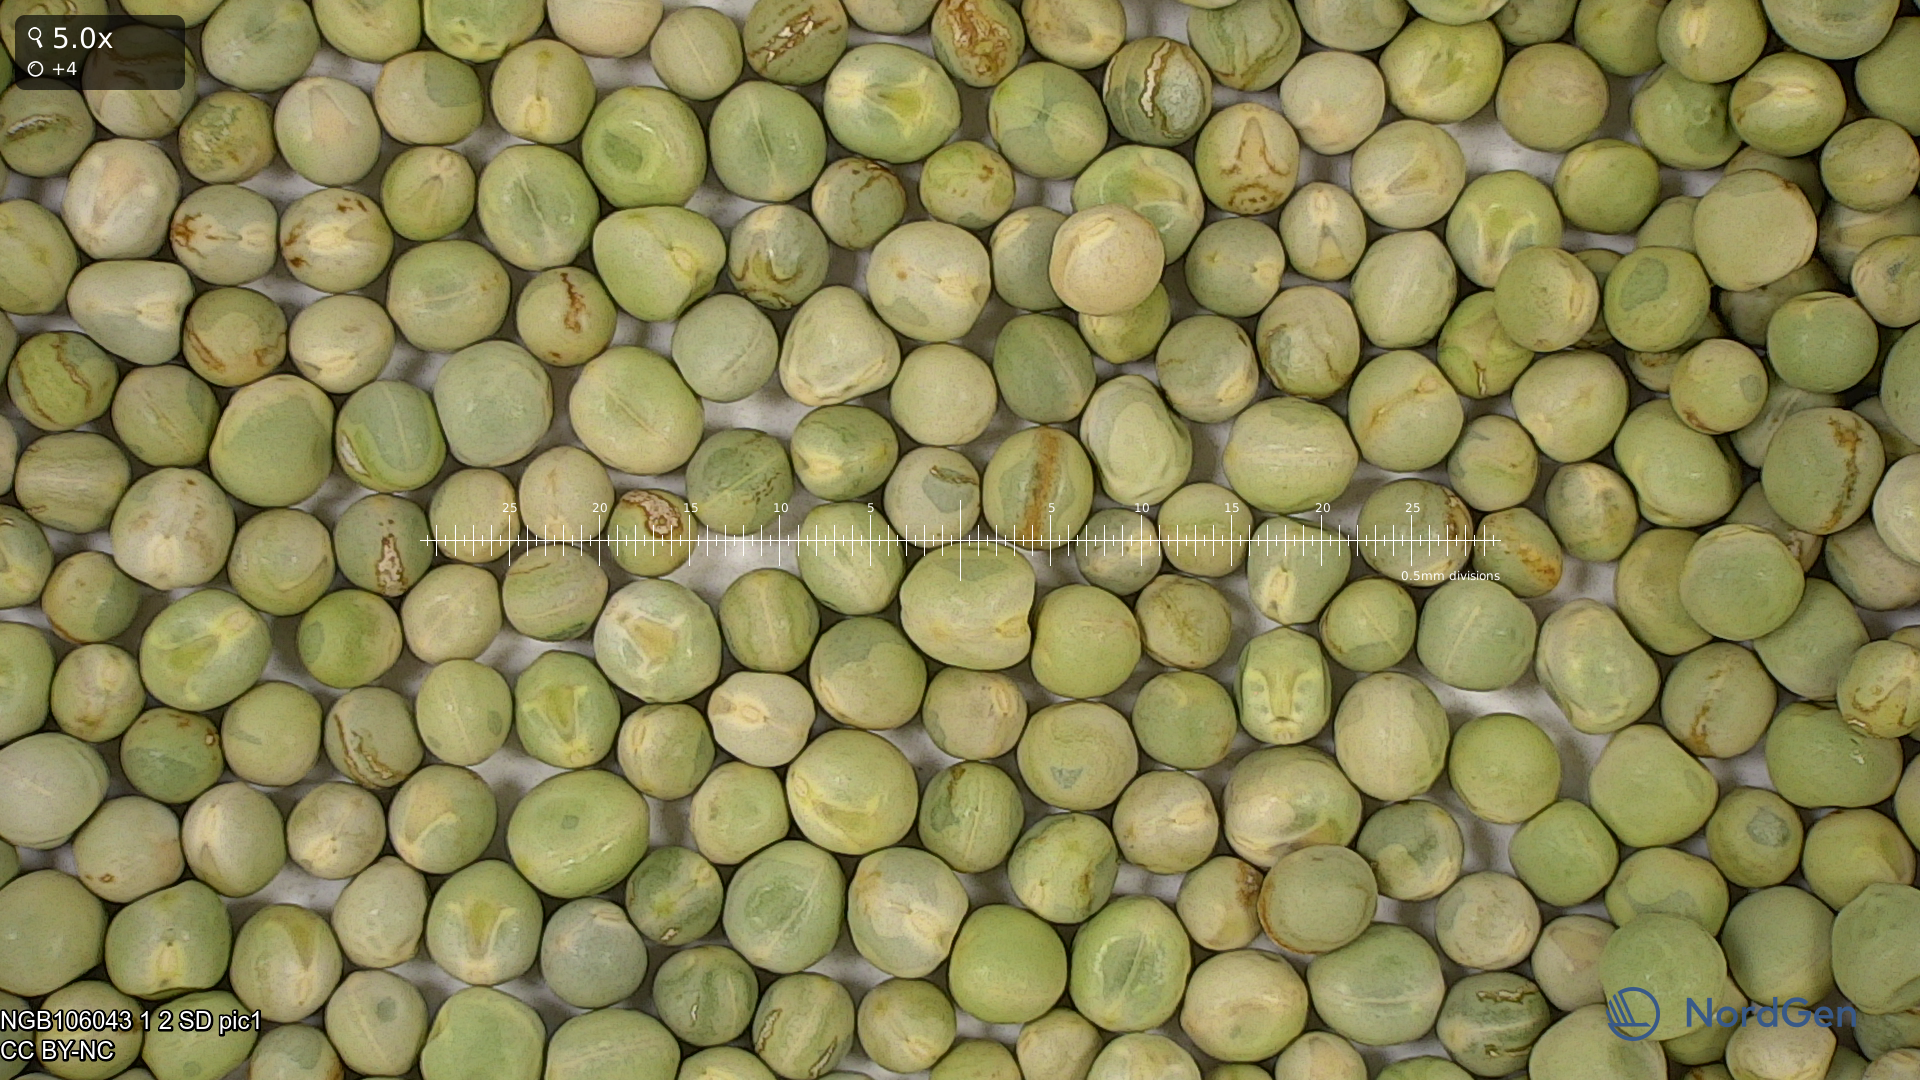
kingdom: Plantae
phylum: Tracheophyta
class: Magnoliopsida
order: Fabales
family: Fabaceae
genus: Lathyrus
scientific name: Lathyrus oleraceus
